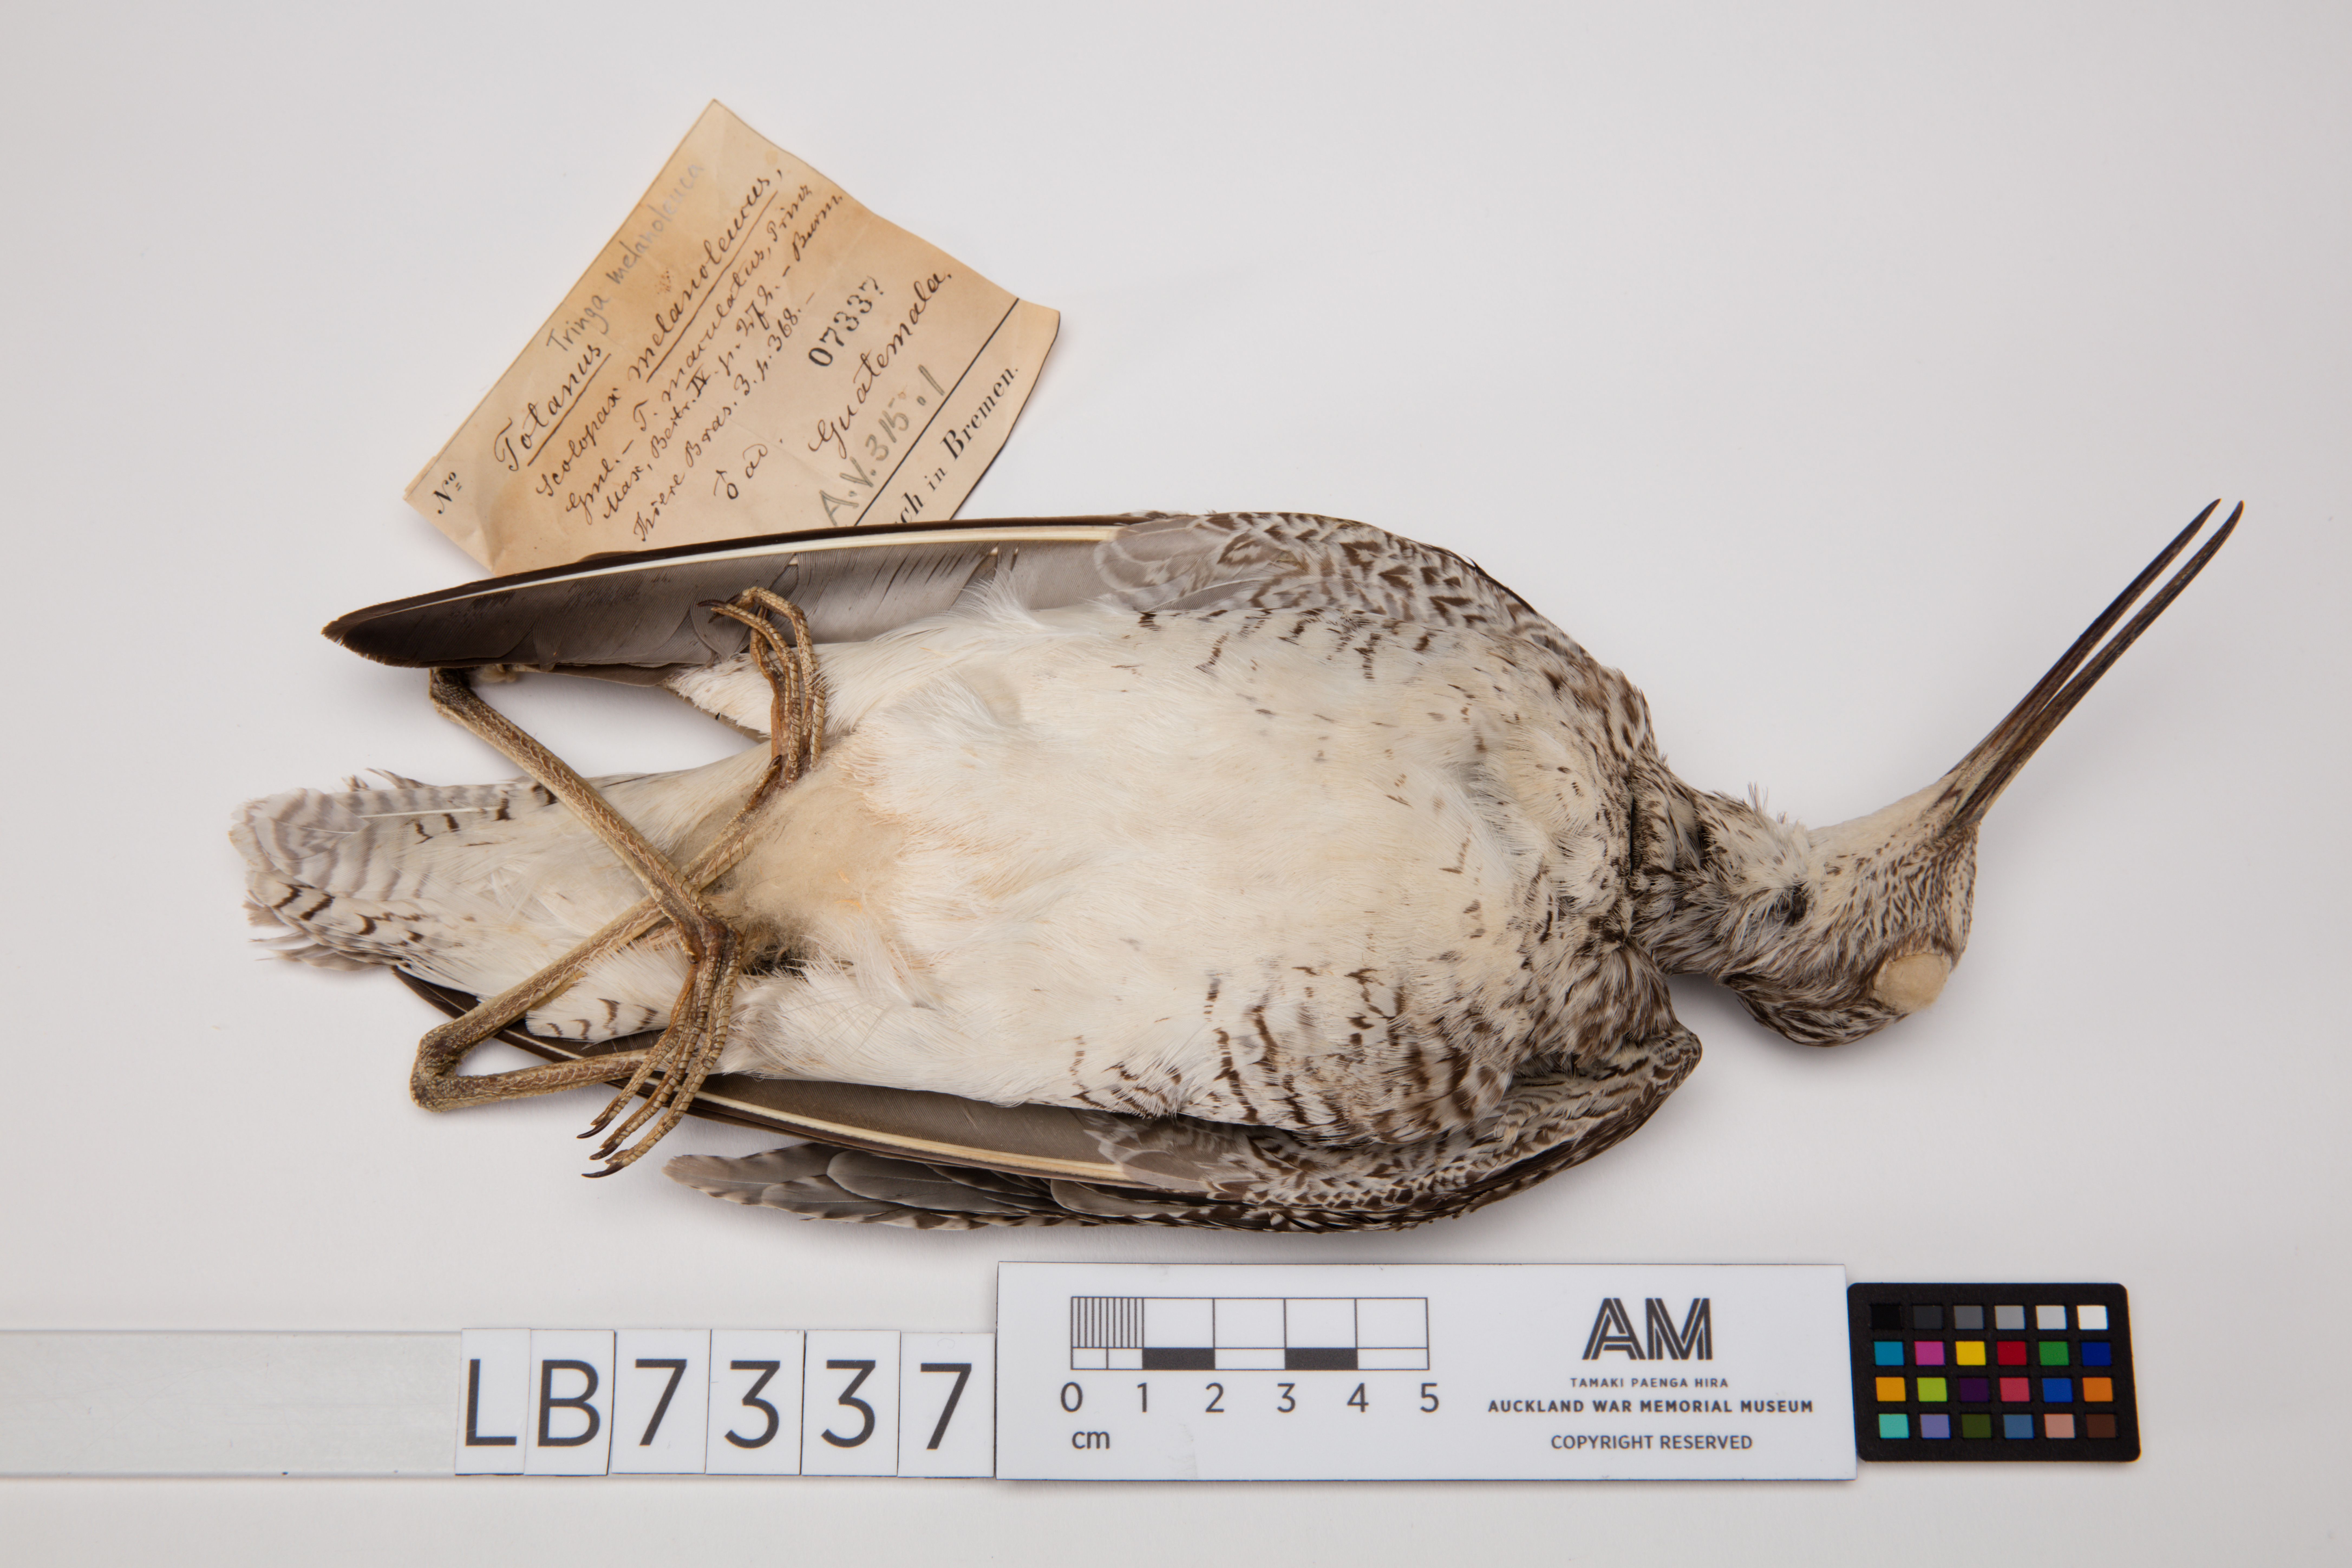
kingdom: Animalia
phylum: Chordata
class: Aves
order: Charadriiformes
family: Scolopacidae
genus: Tringa
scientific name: Tringa melanoleuca
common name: Greater yellowlegs
